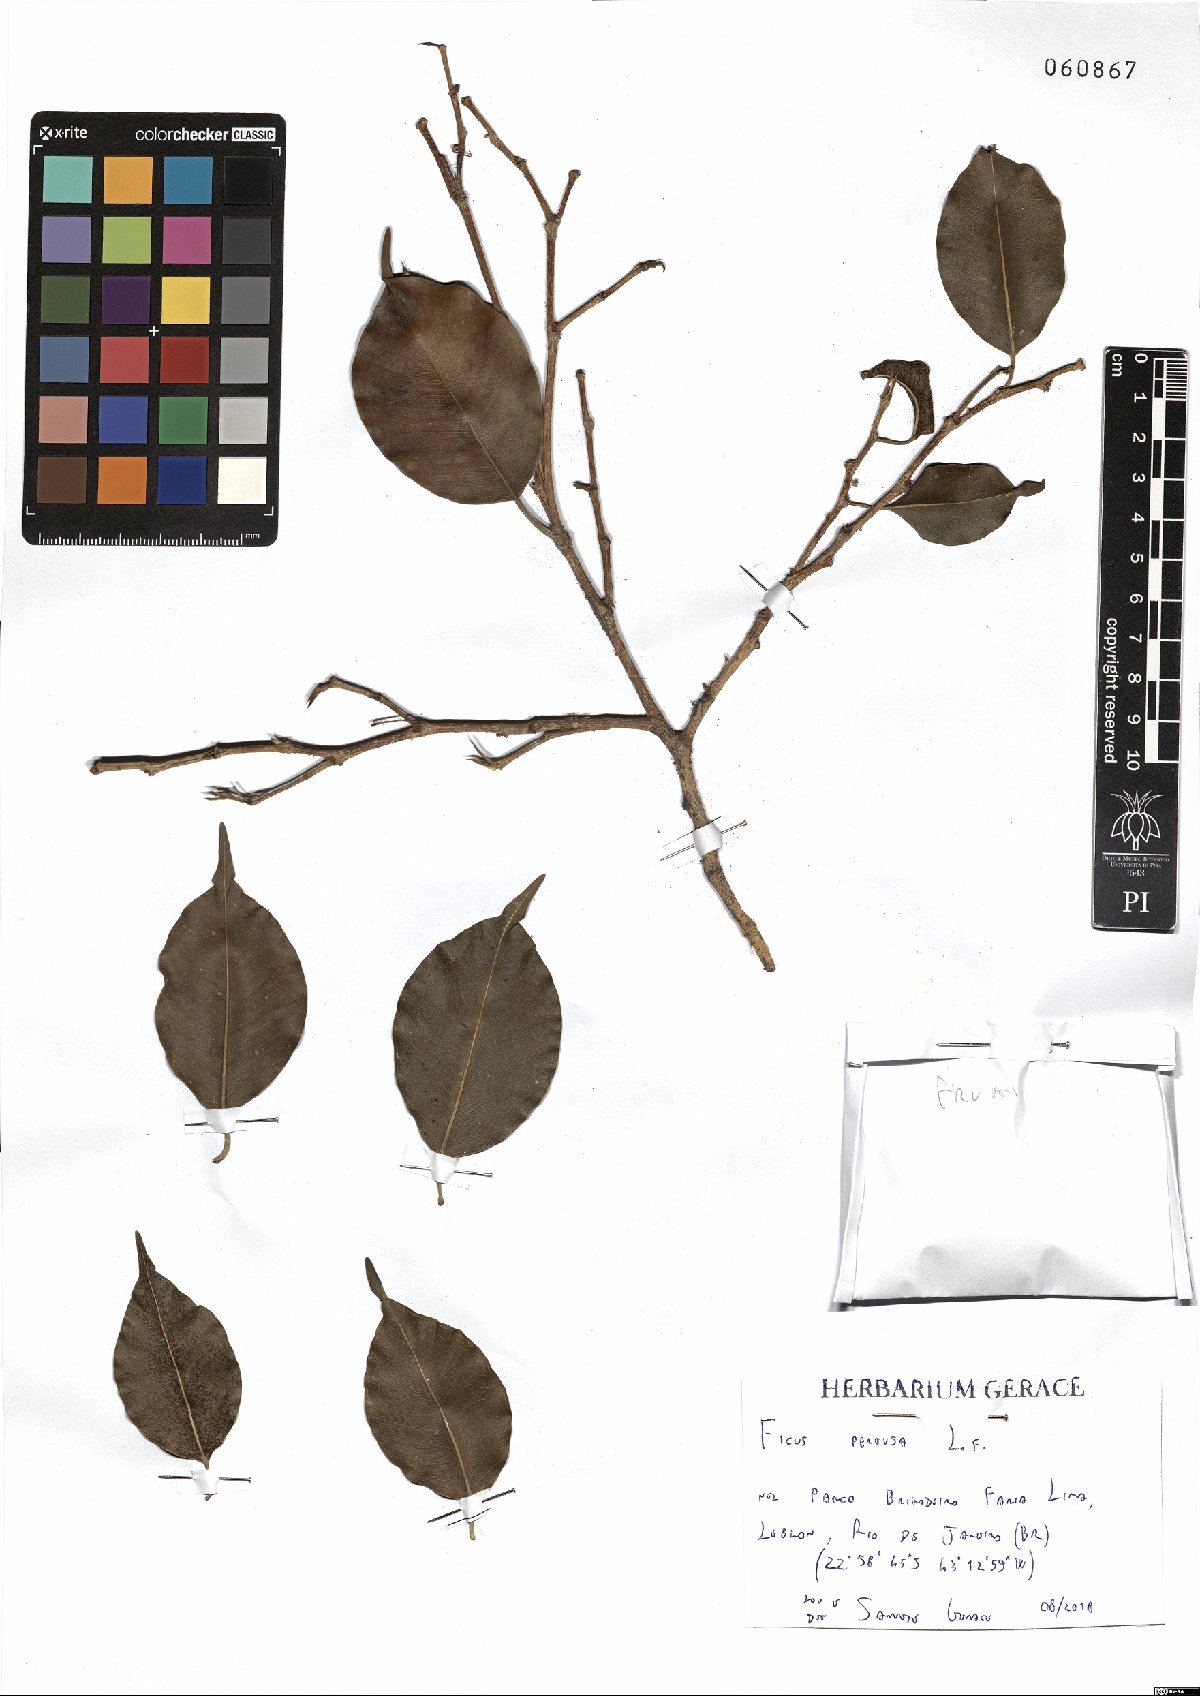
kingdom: Plantae
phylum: Tracheophyta
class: Magnoliopsida
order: Rosales
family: Moraceae
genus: Ficus
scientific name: Ficus pertusa
